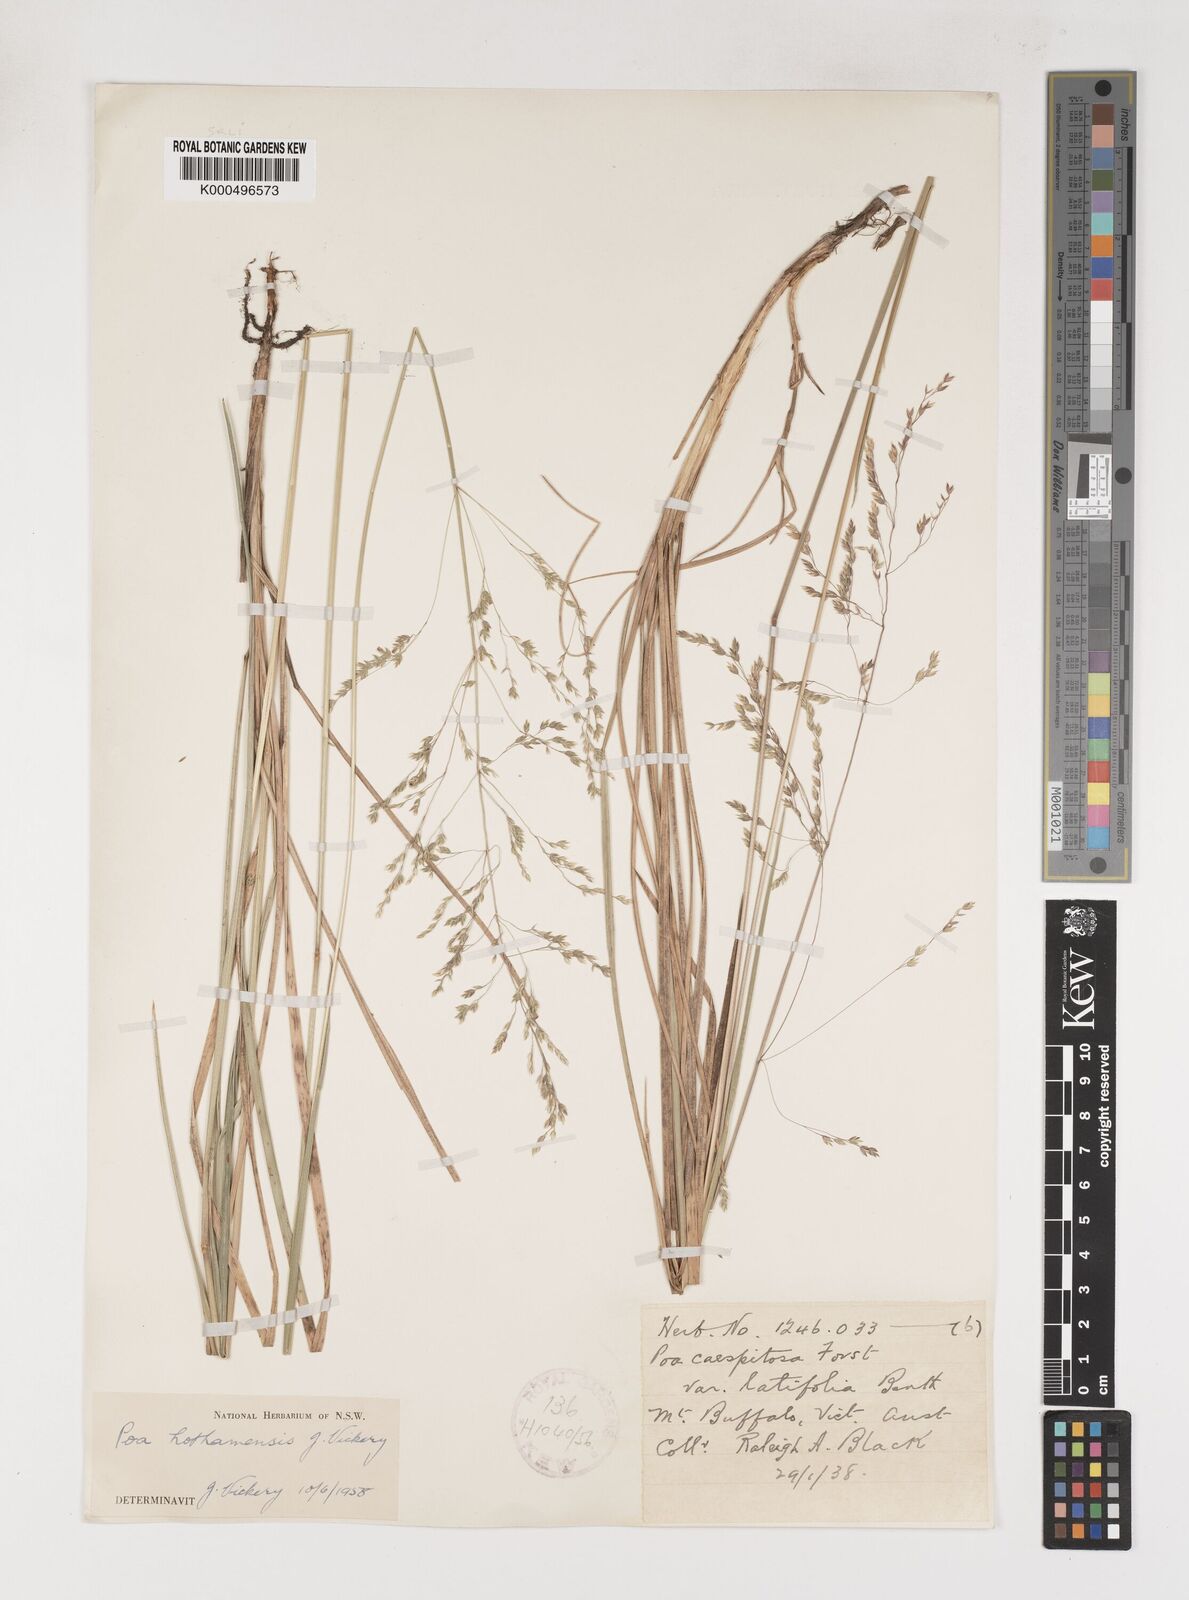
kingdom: Plantae
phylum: Tracheophyta
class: Liliopsida
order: Poales
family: Poaceae
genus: Poa
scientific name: Poa hothamensis
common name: Ledge grass
